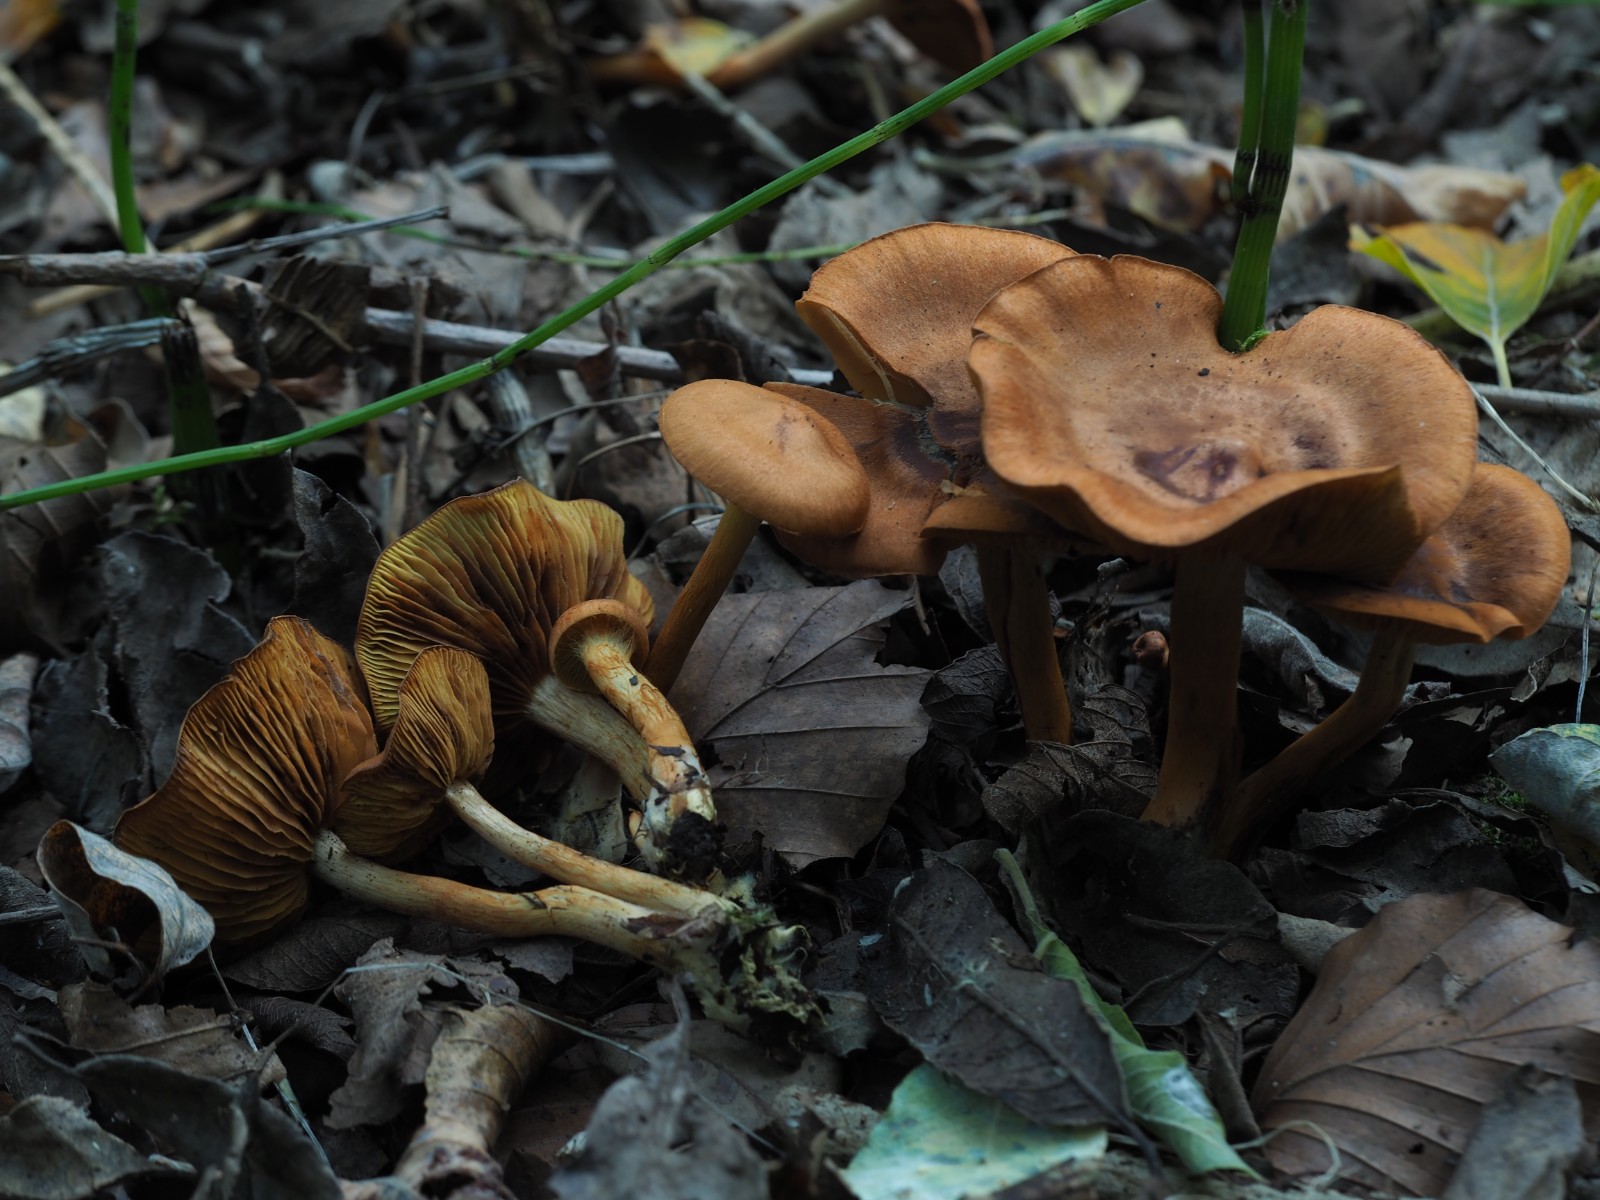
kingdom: Fungi
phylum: Basidiomycota
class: Agaricomycetes
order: Agaricales
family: Cortinariaceae
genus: Cortinarius
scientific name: Cortinarius uliginosus
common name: mose-slørhat
